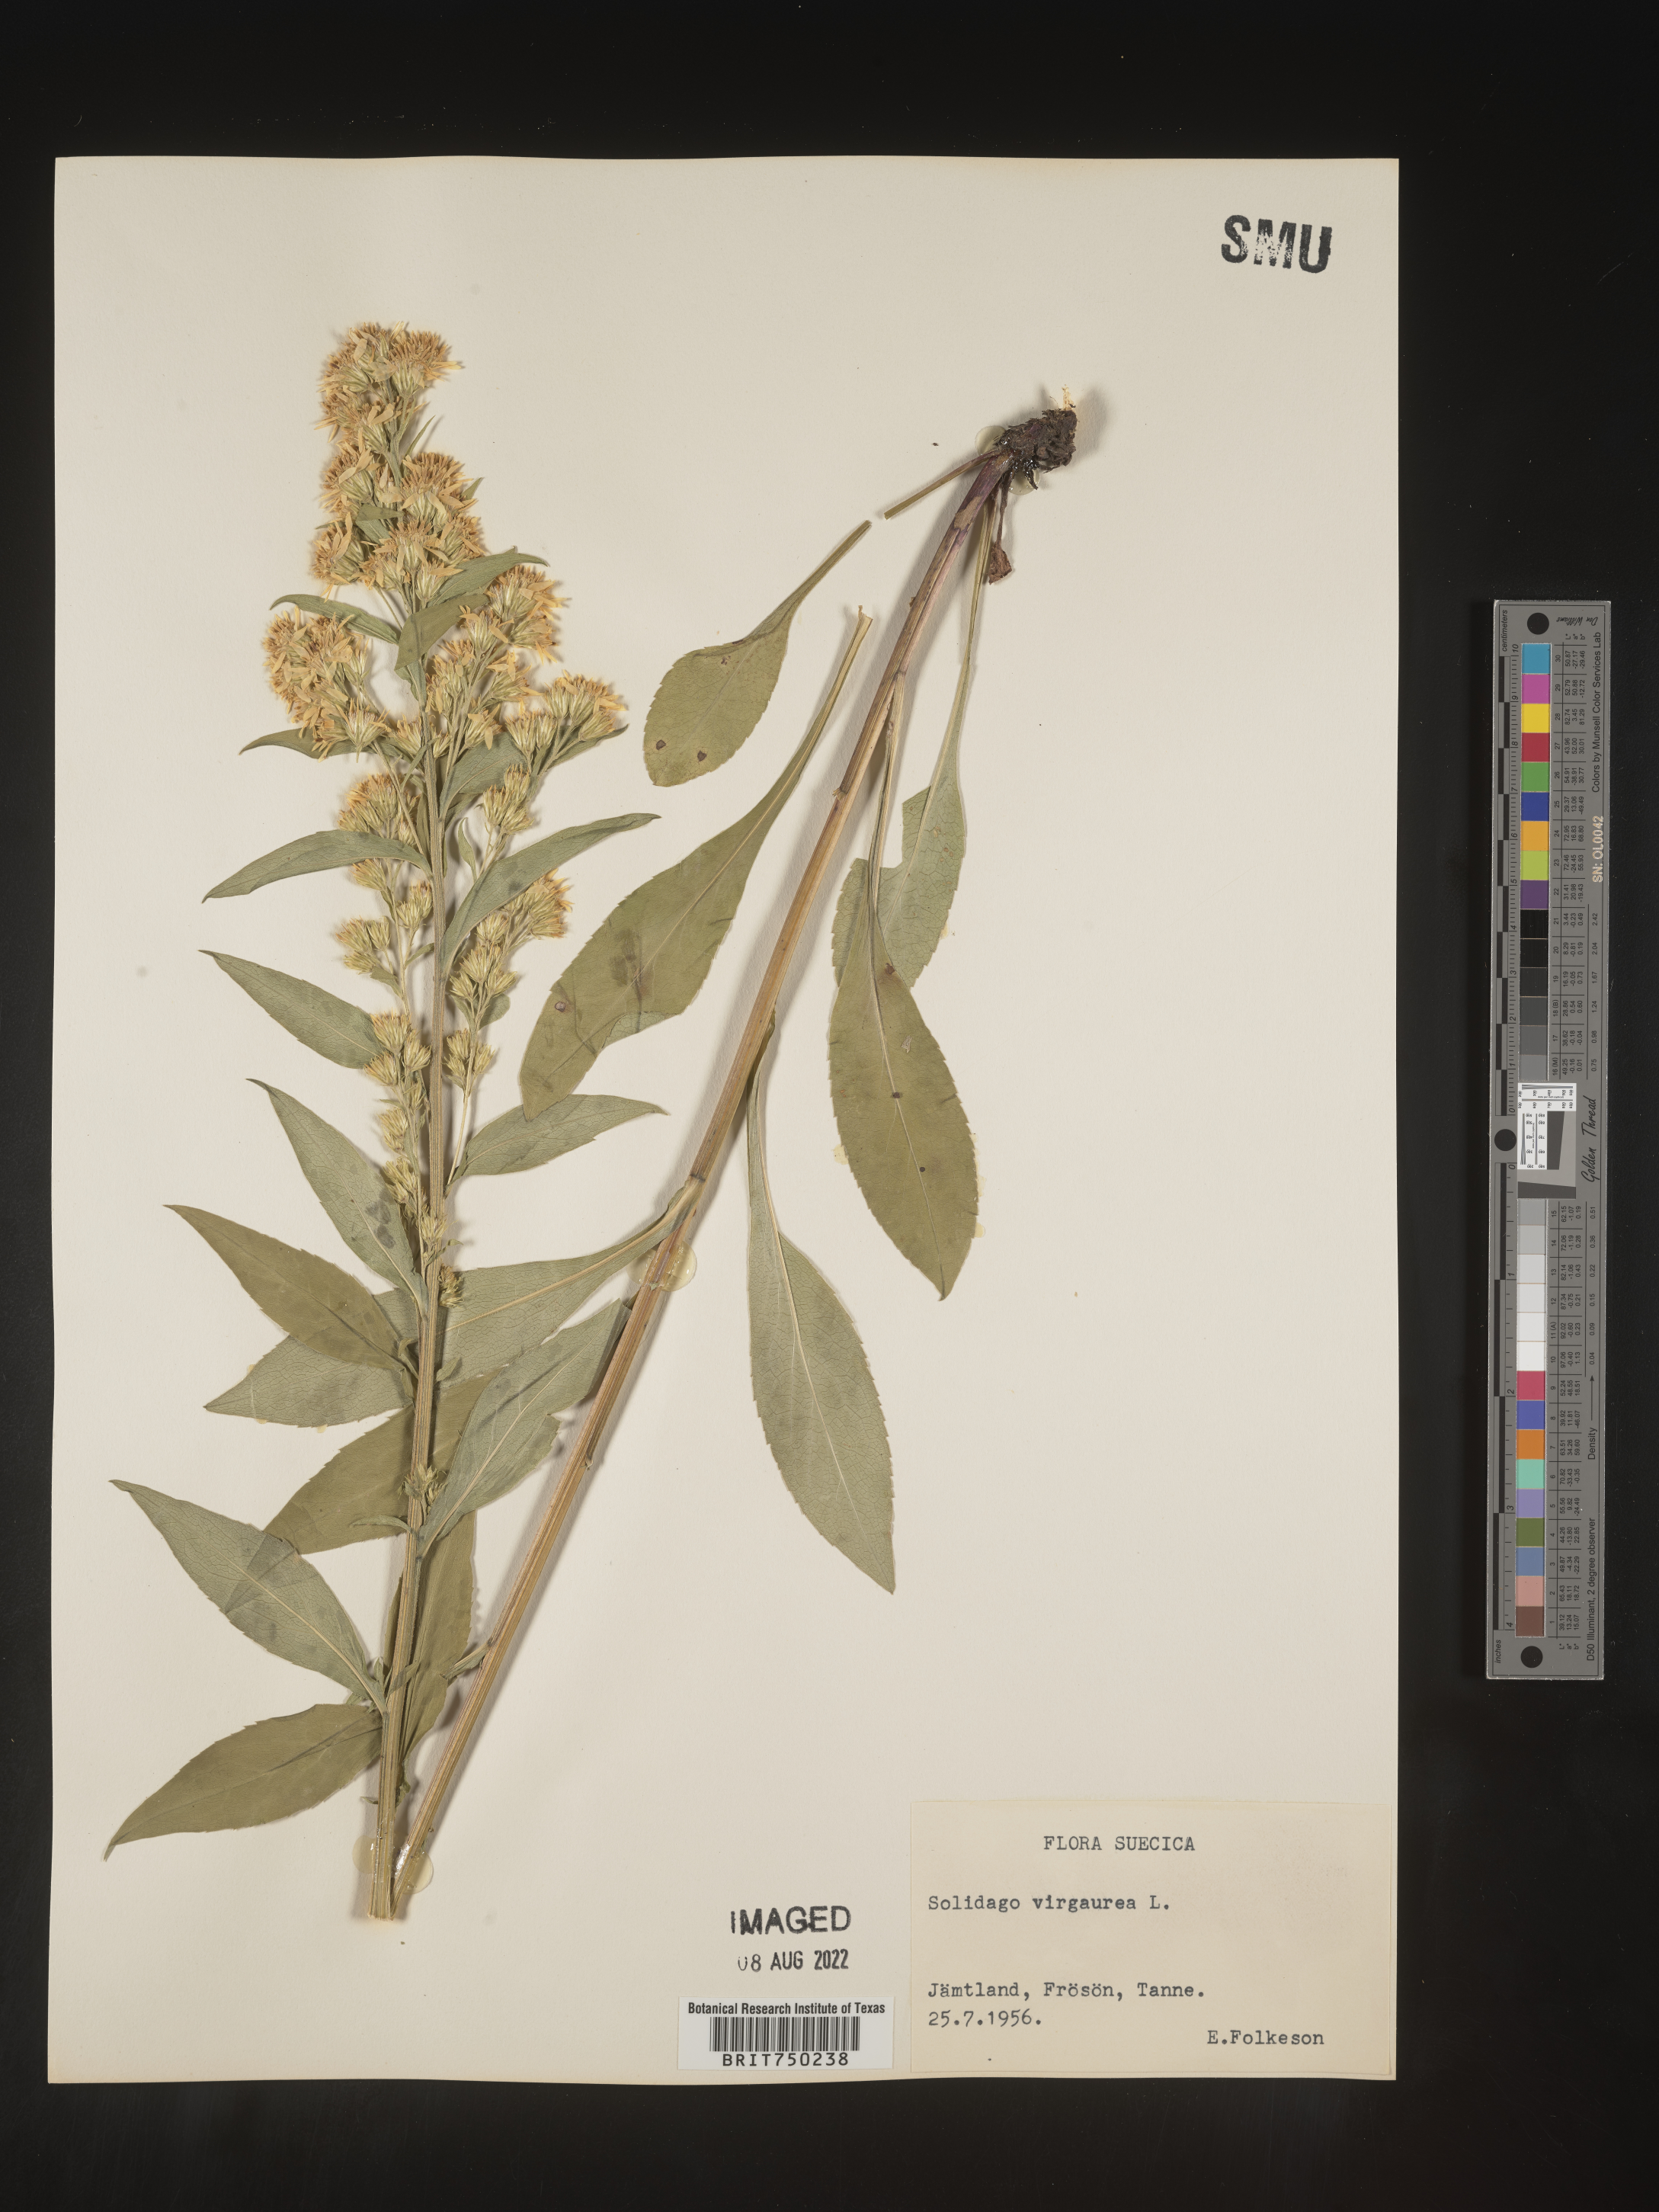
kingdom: Plantae
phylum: Tracheophyta
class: Magnoliopsida
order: Asterales
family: Asteraceae
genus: Solidago
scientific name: Solidago
